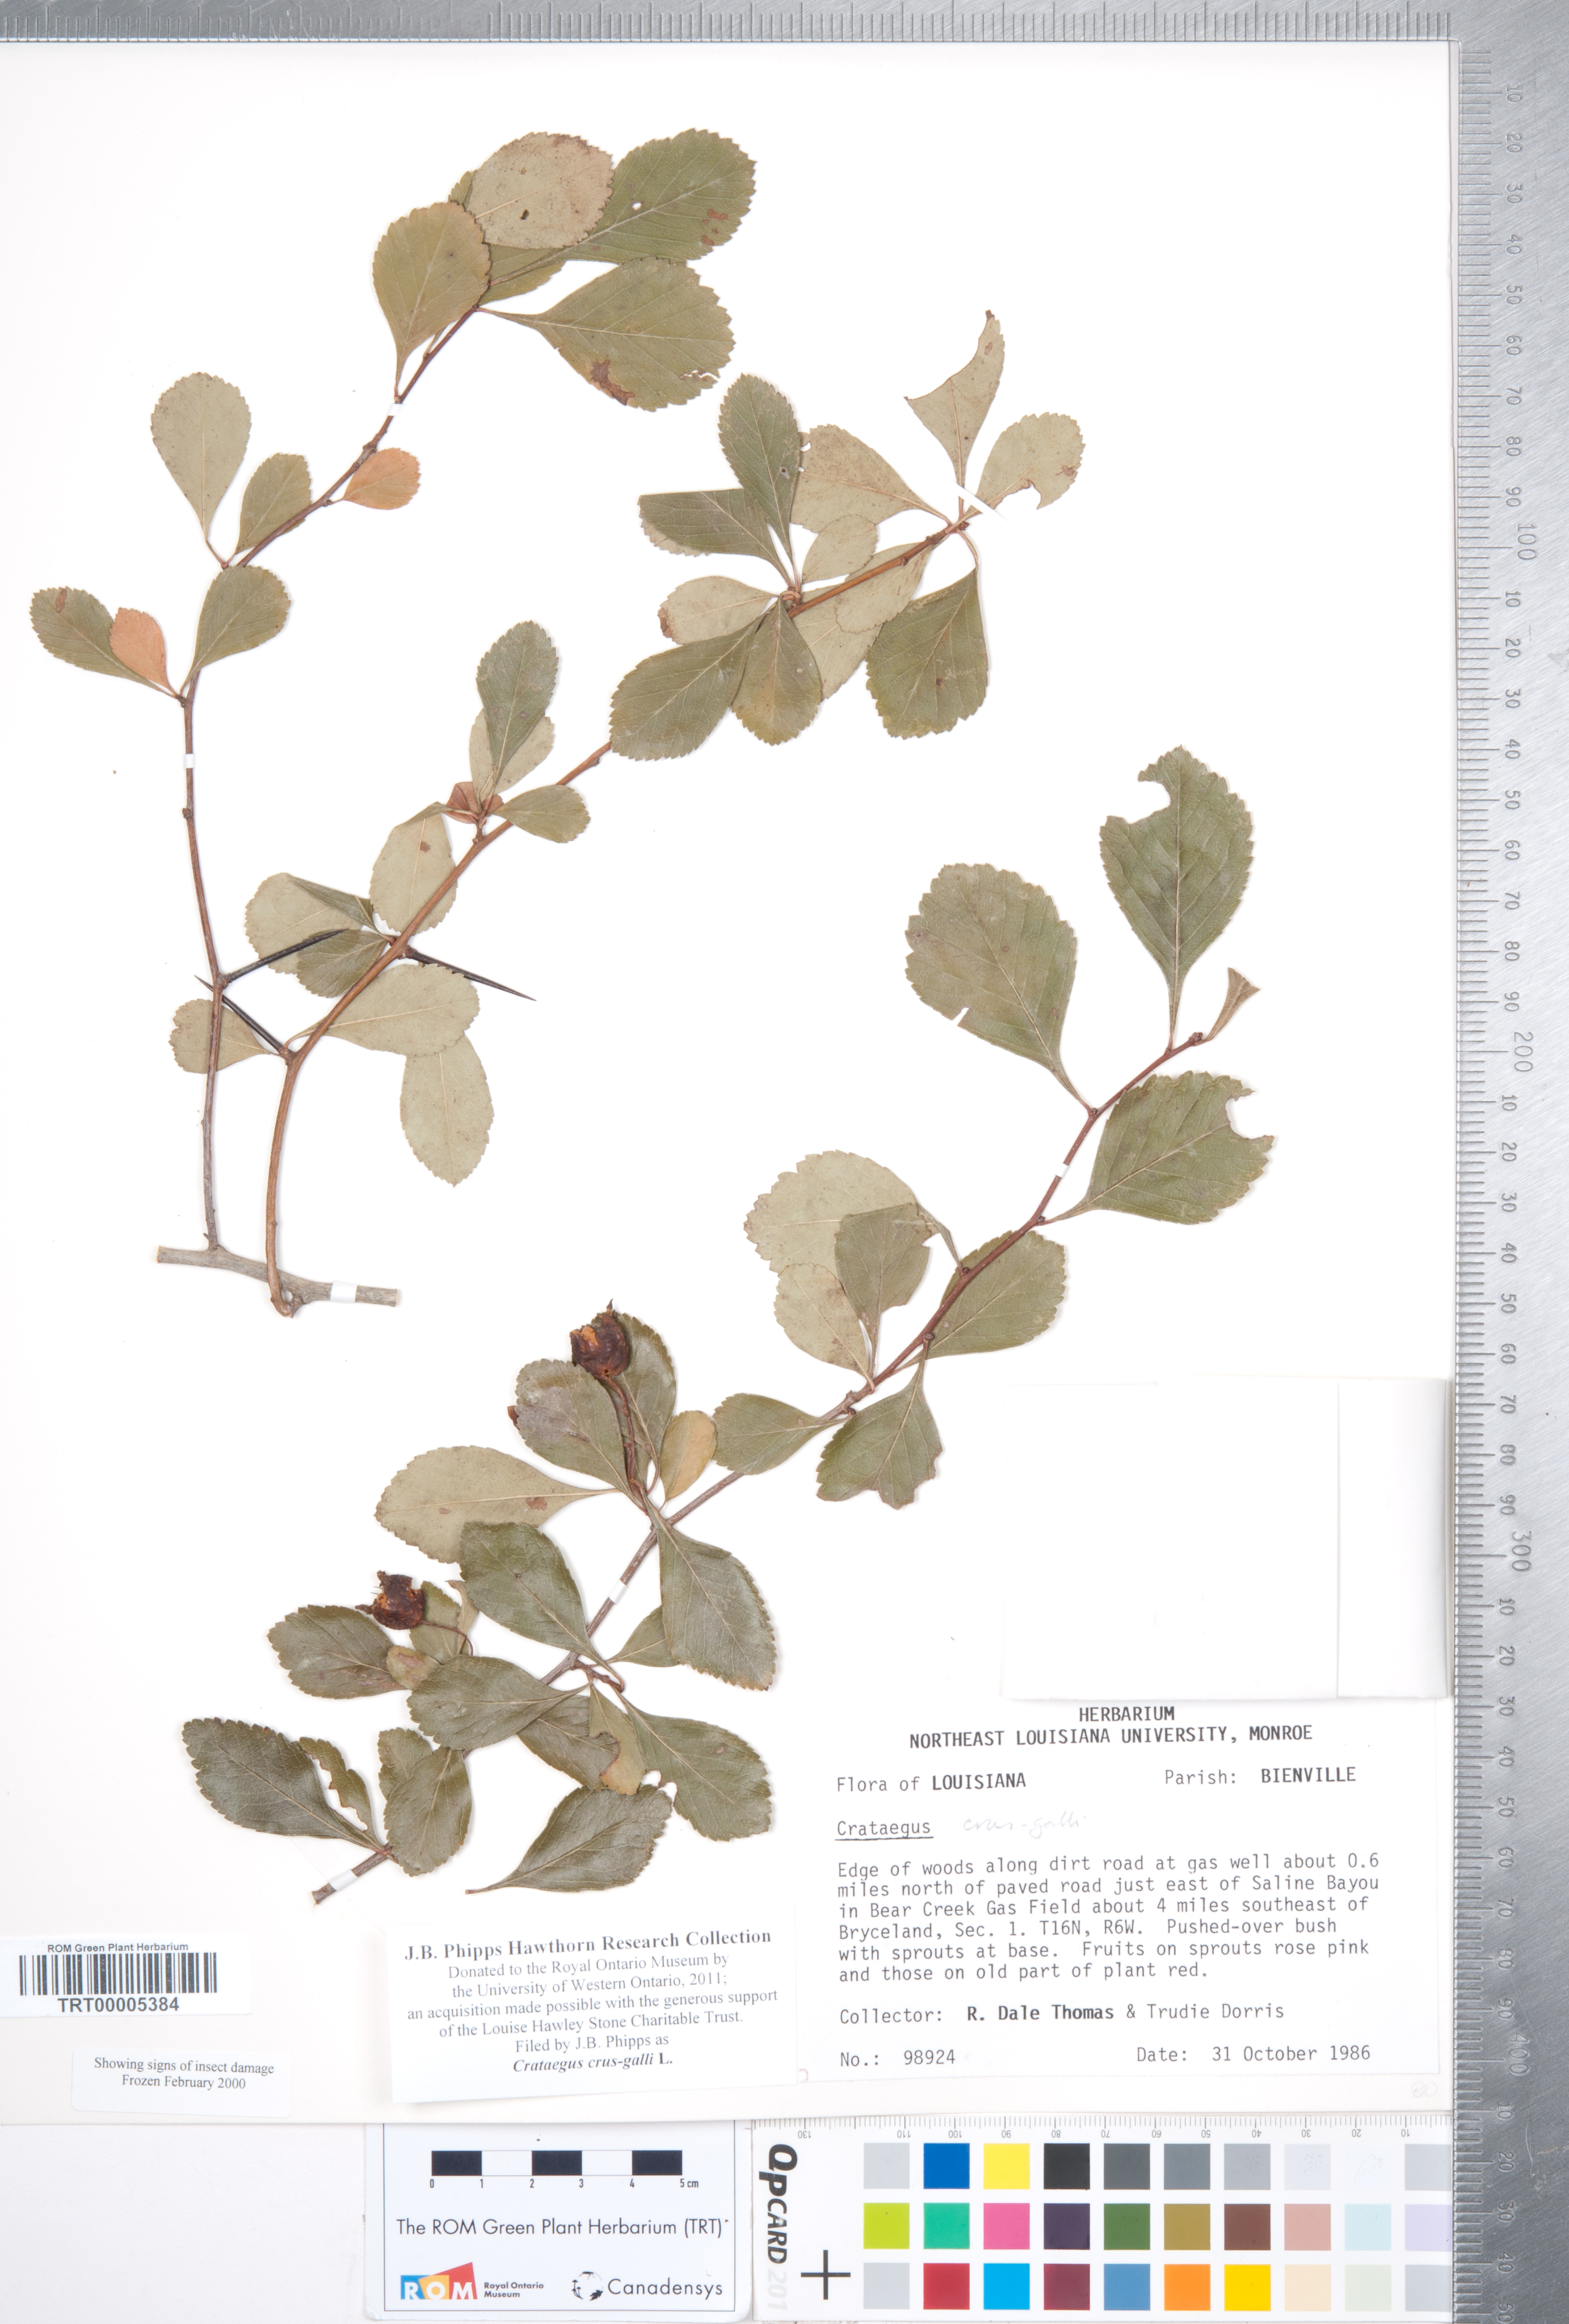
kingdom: Plantae
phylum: Tracheophyta
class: Magnoliopsida
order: Rosales
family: Rosaceae
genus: Crataegus
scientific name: Crataegus crus-galli
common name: Cockspurthorn
